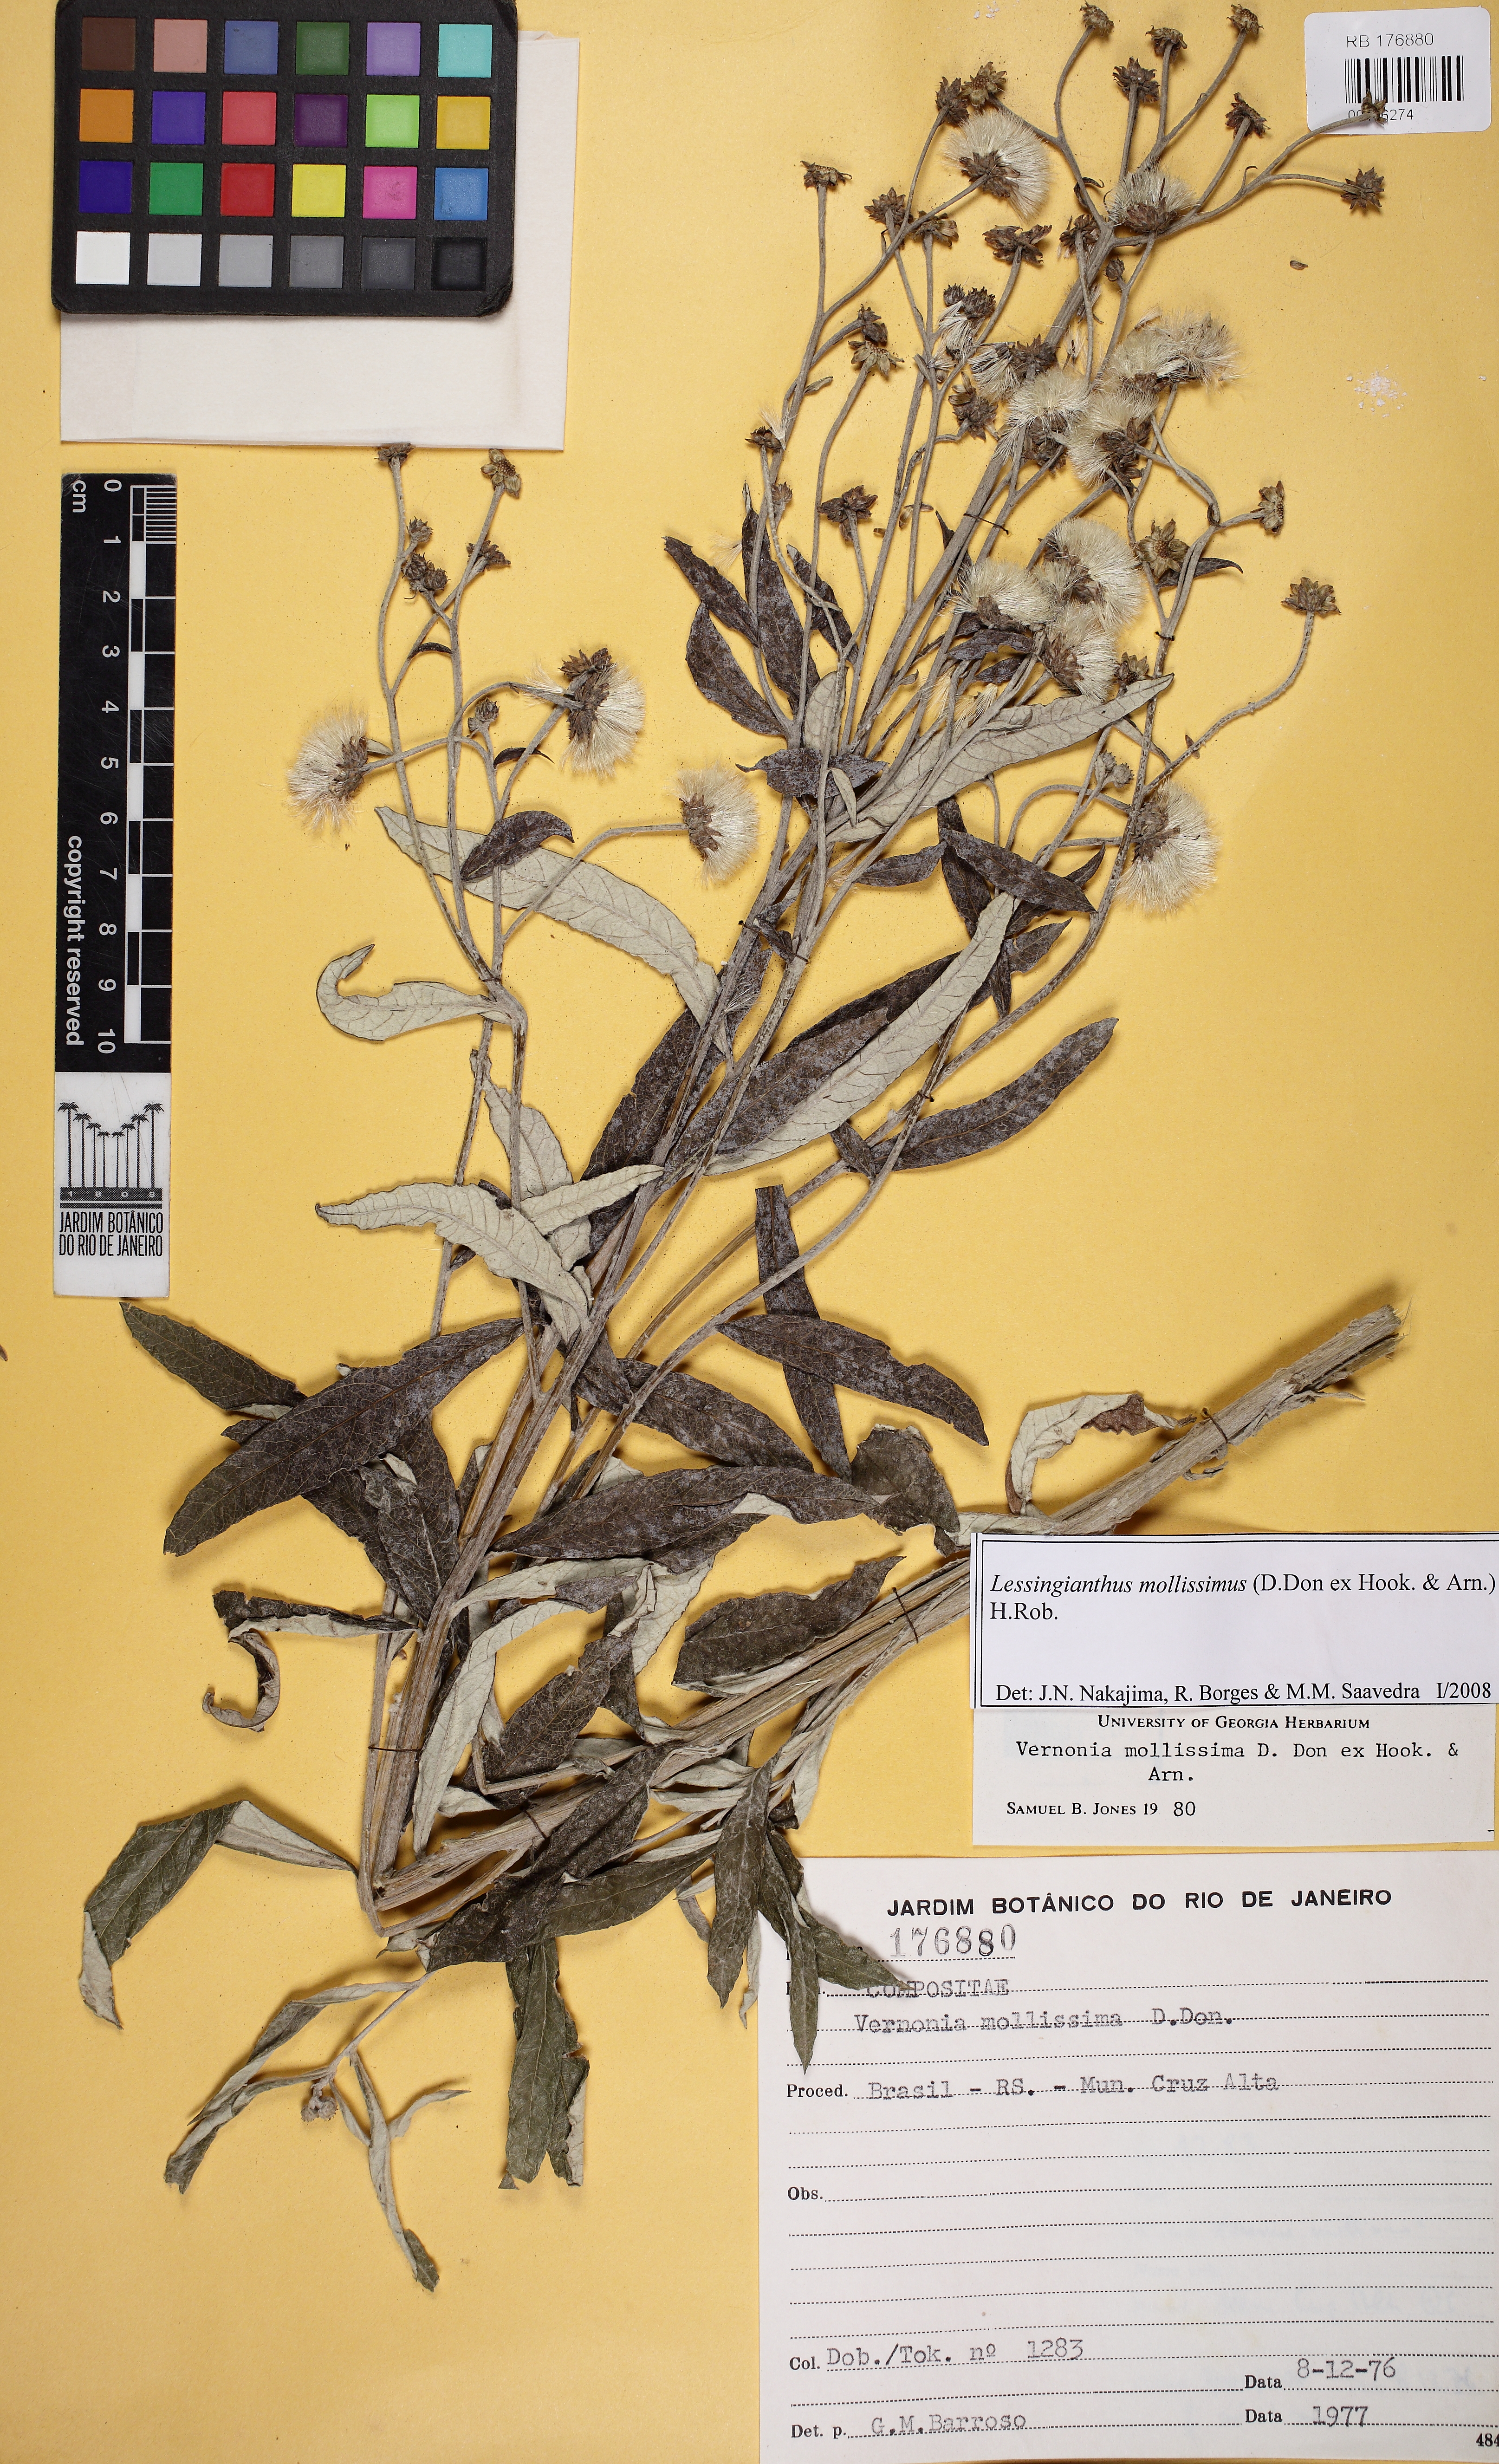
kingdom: Plantae
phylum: Tracheophyta
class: Magnoliopsida
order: Asterales
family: Asteraceae
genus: Lessingianthus
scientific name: Lessingianthus mollissimus
